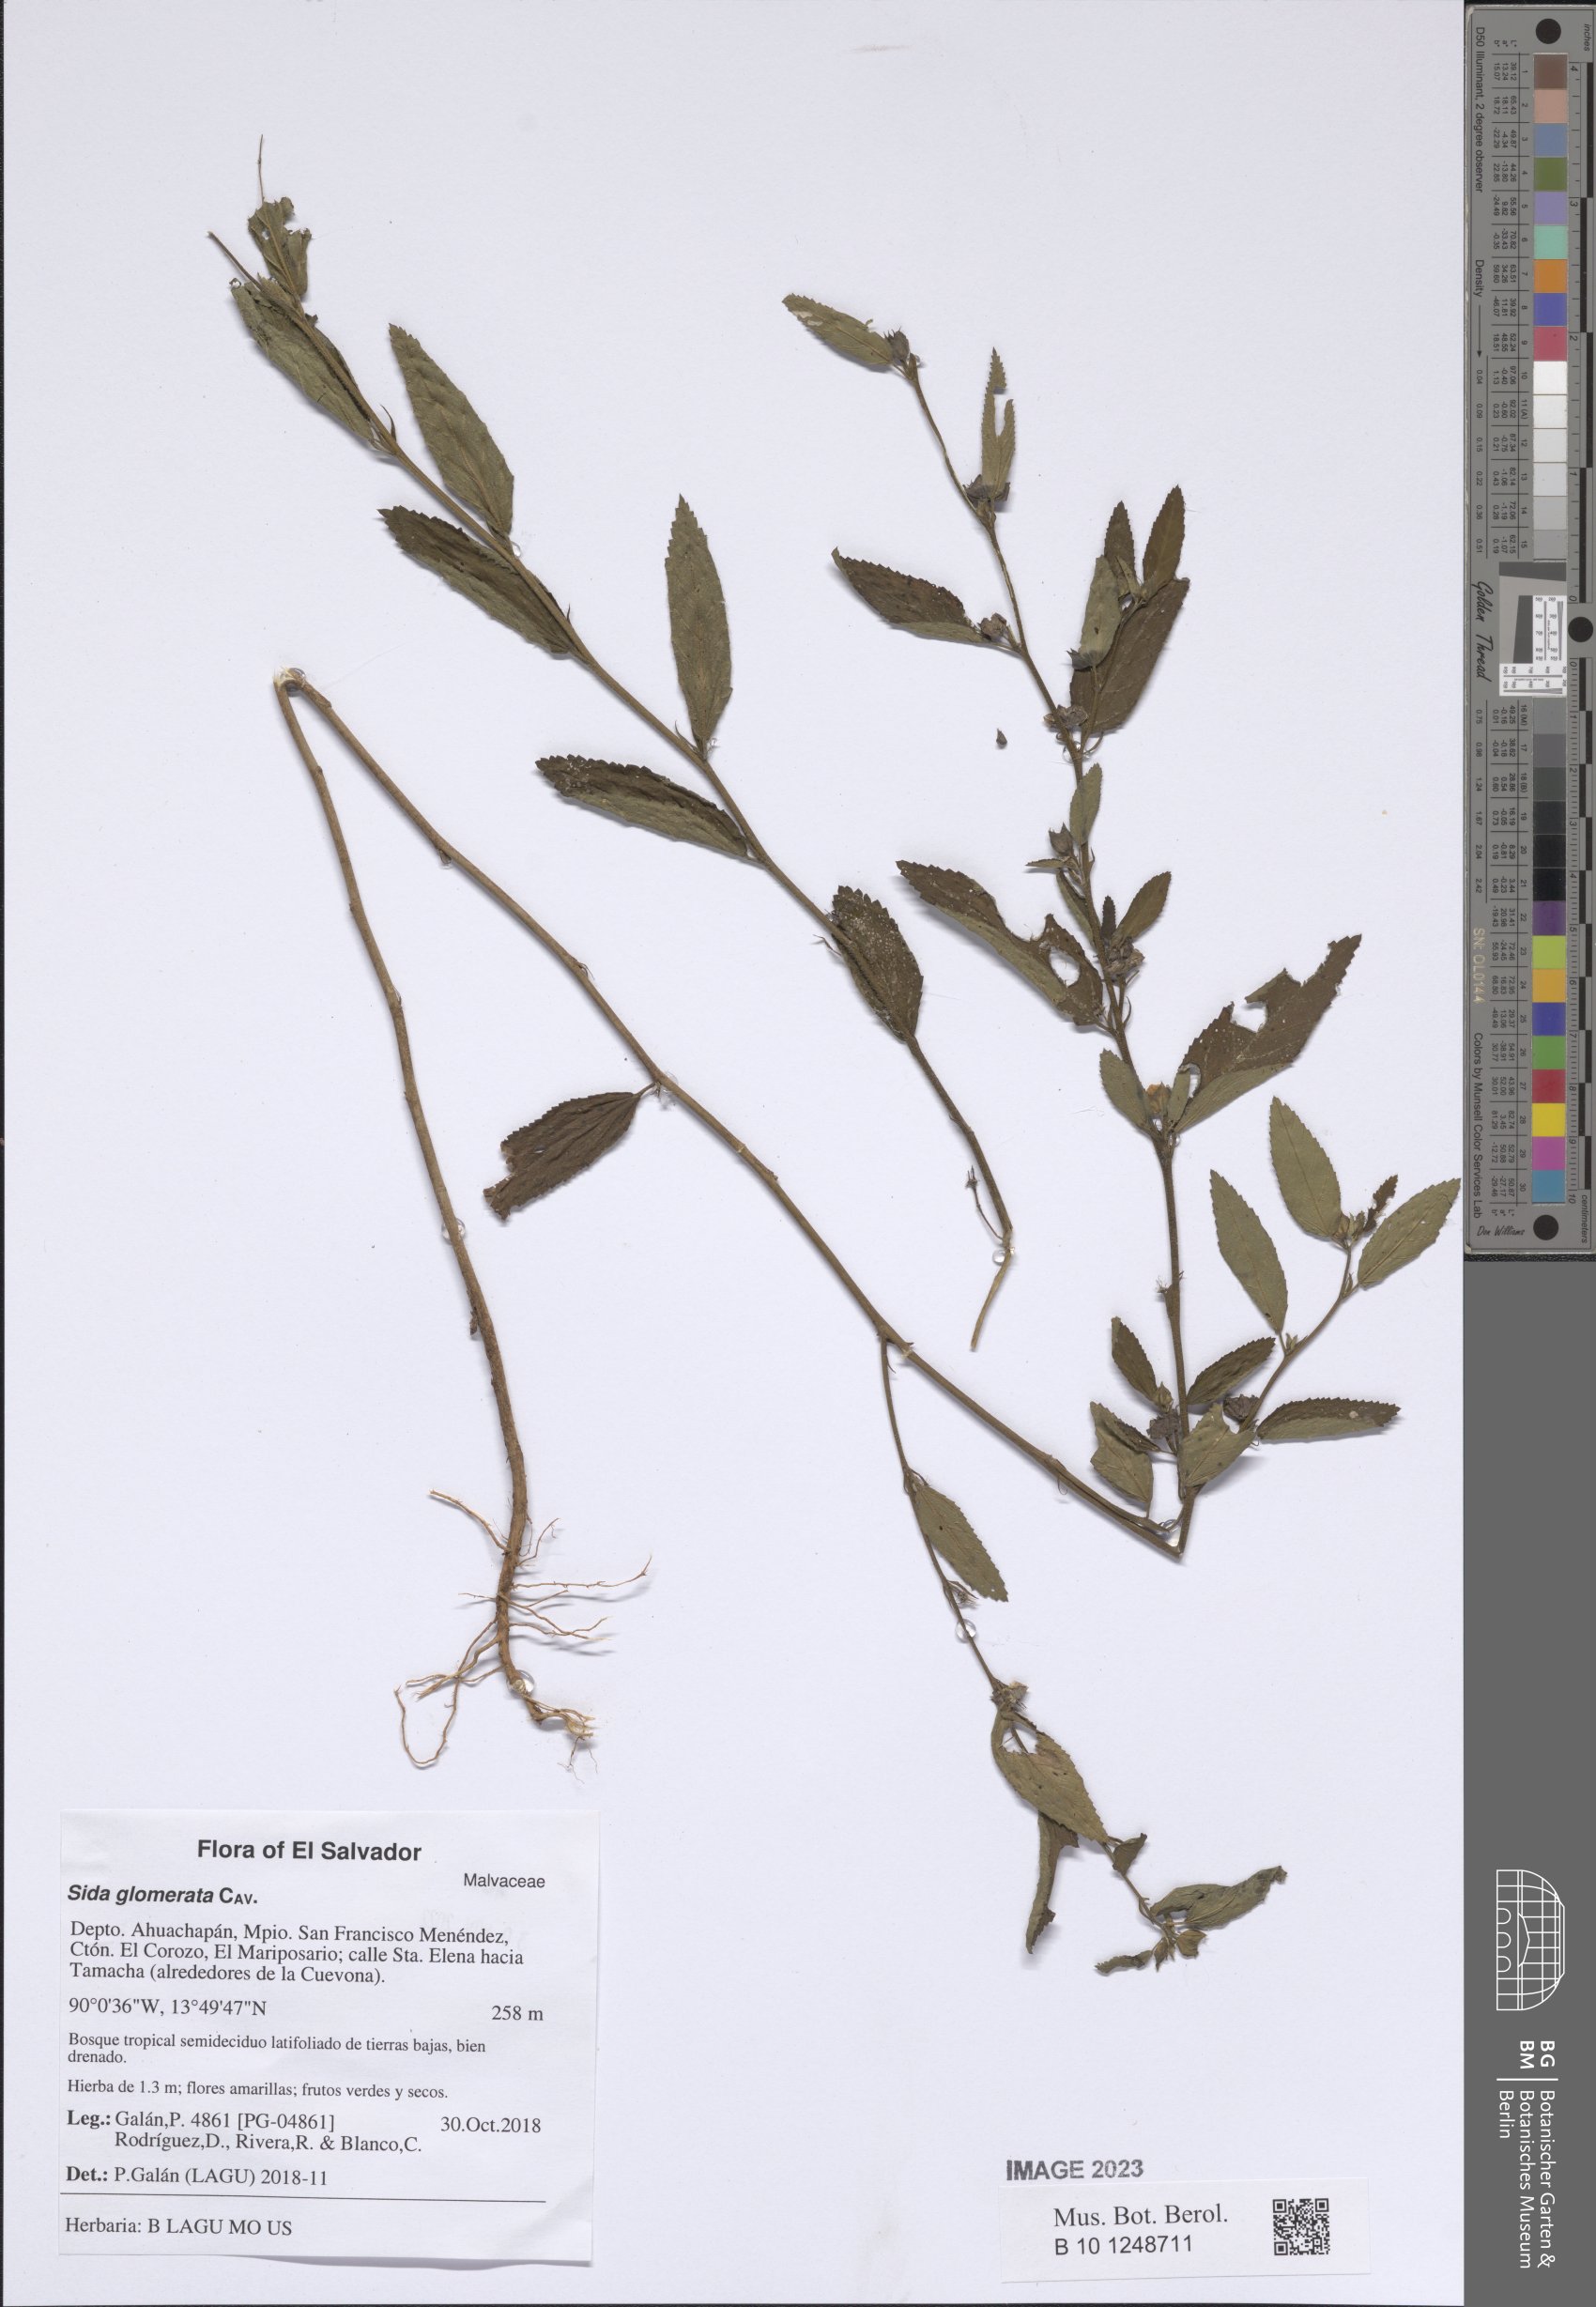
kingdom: Plantae
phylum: Tracheophyta
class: Magnoliopsida
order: Malvales
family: Malvaceae
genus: Sida
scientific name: Sida glomerata
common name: Clustered fanpetals
